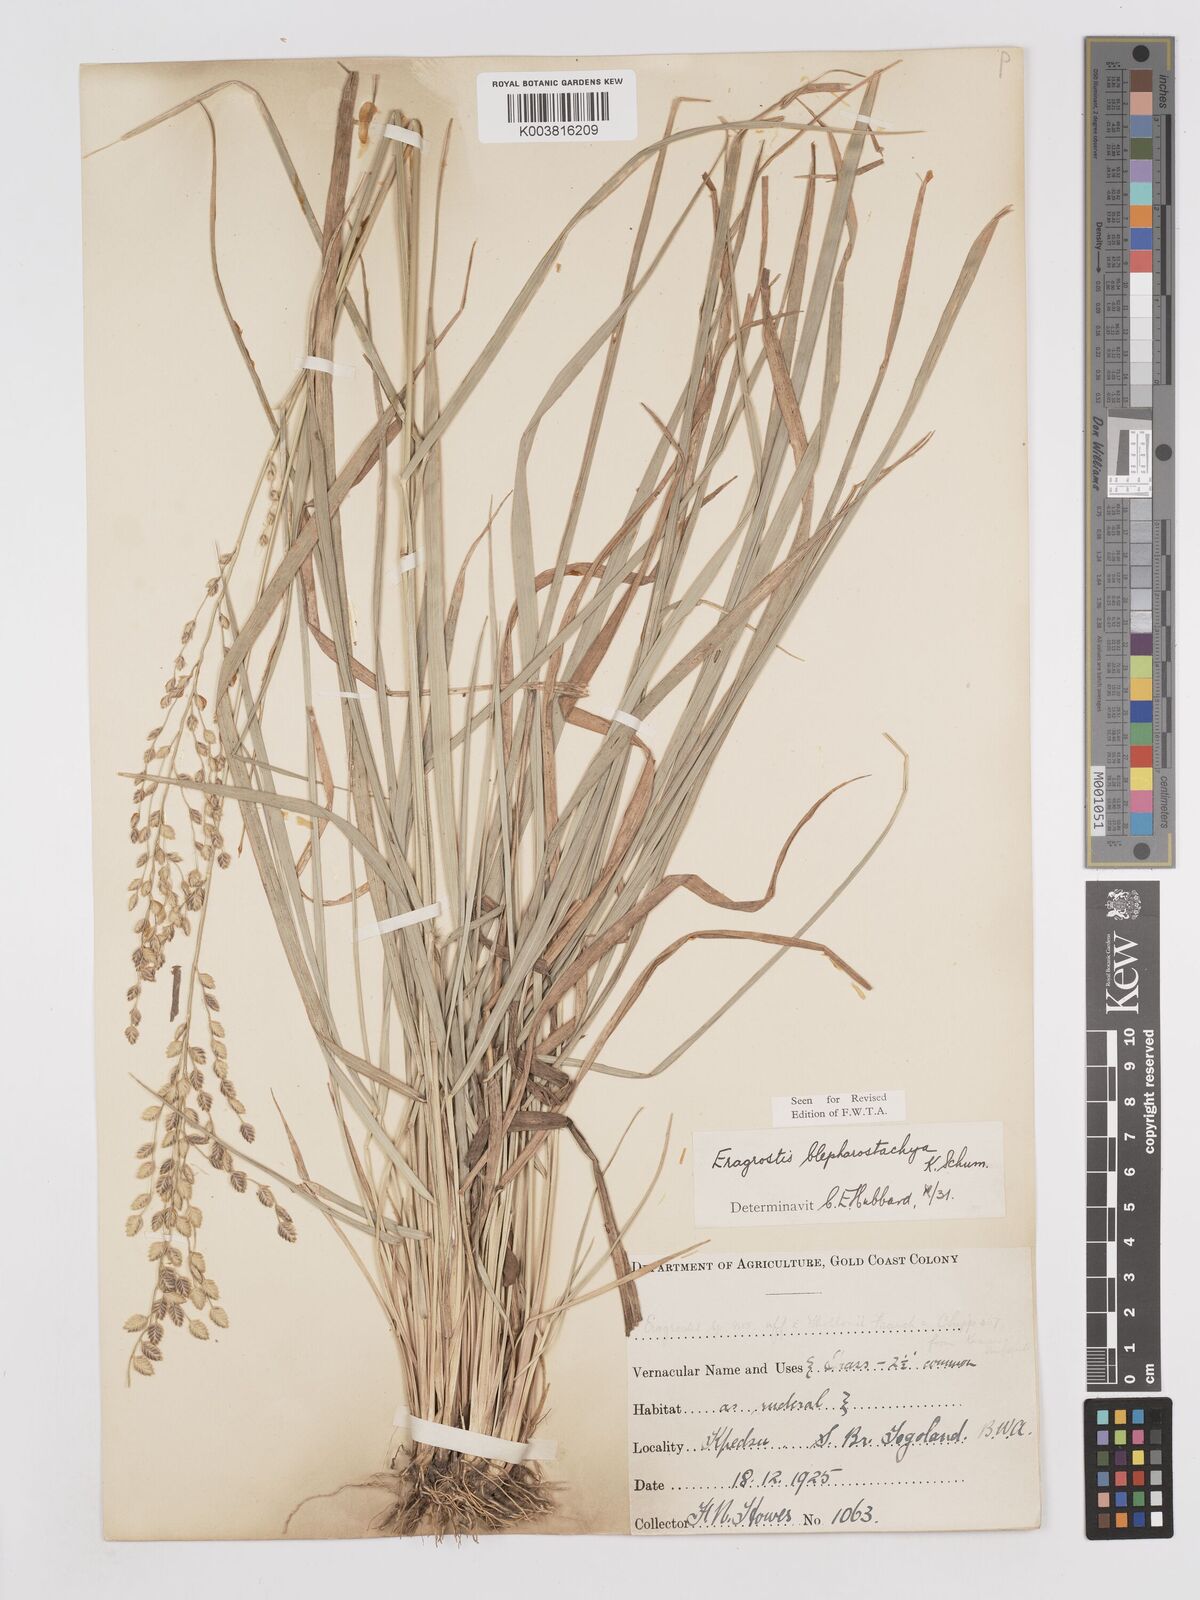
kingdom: Plantae
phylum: Tracheophyta
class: Liliopsida
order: Poales
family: Poaceae
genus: Eragrostis
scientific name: Eragrostis blepharostachya
